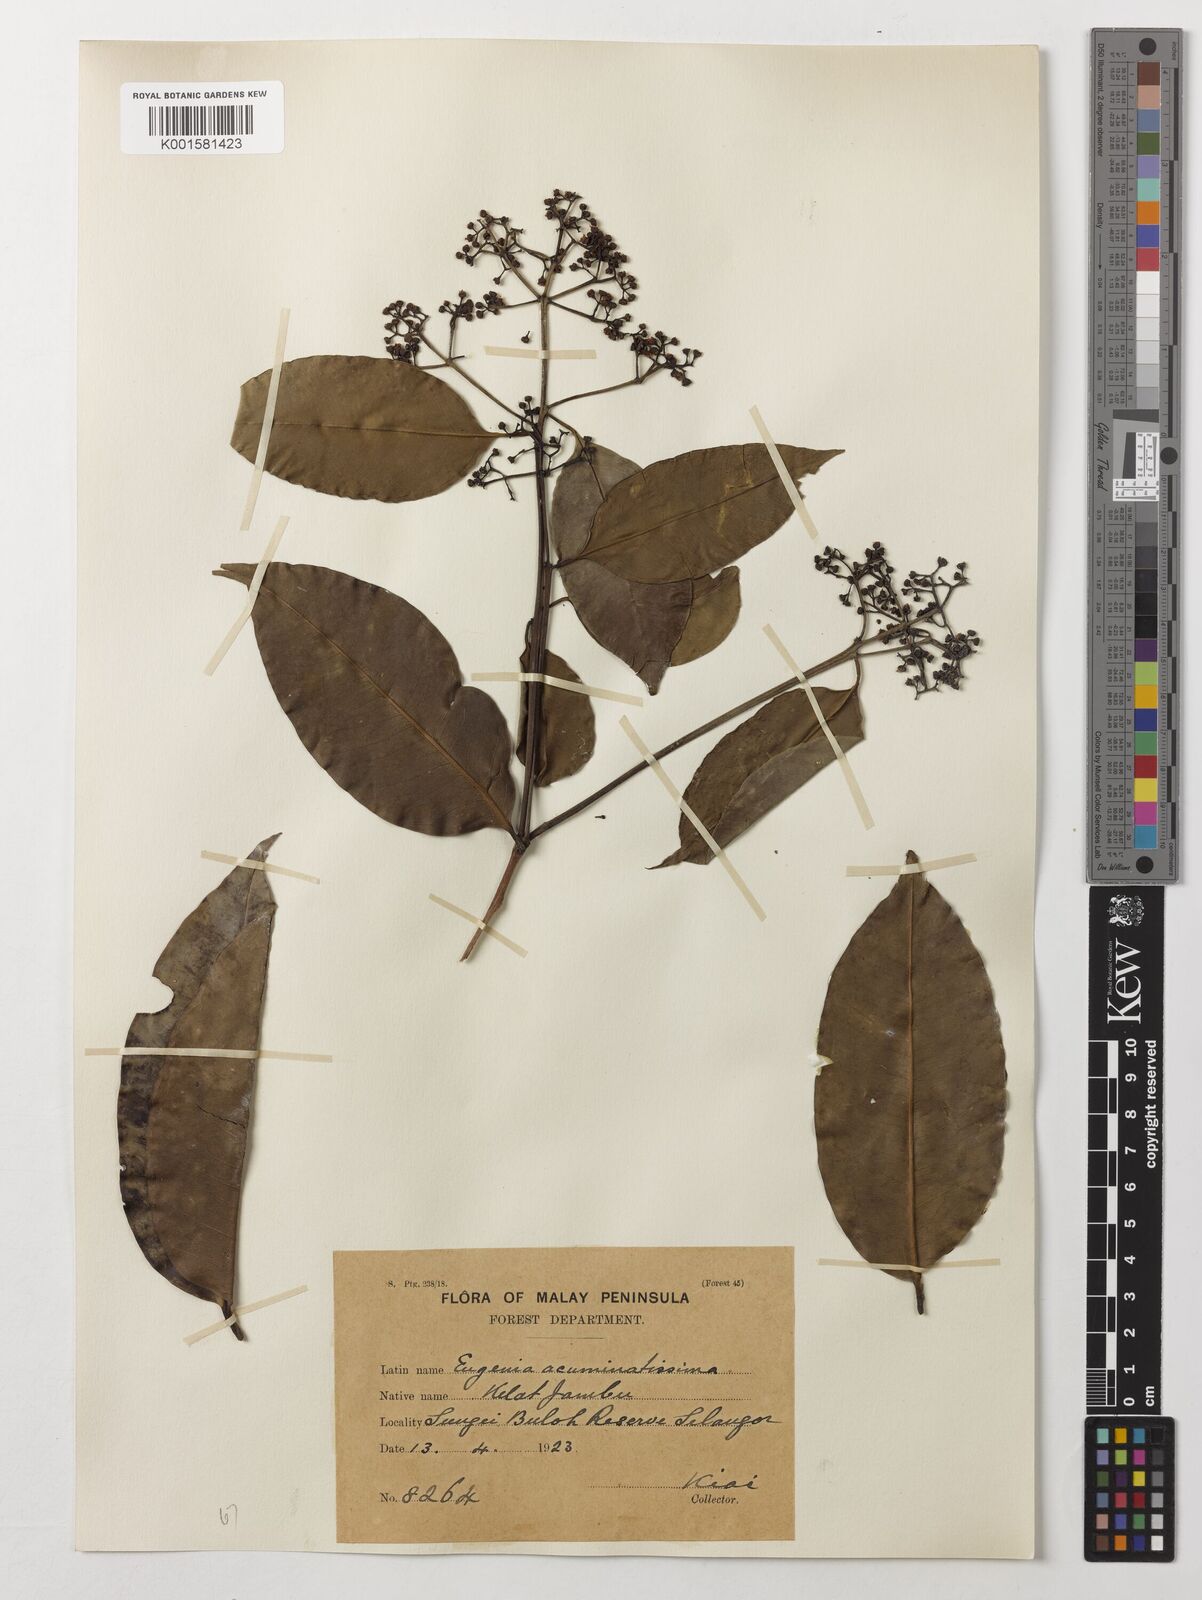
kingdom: Plantae
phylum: Tracheophyta
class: Magnoliopsida
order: Myrtales
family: Myrtaceae
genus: Eugenia
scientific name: Eugenia biflora
